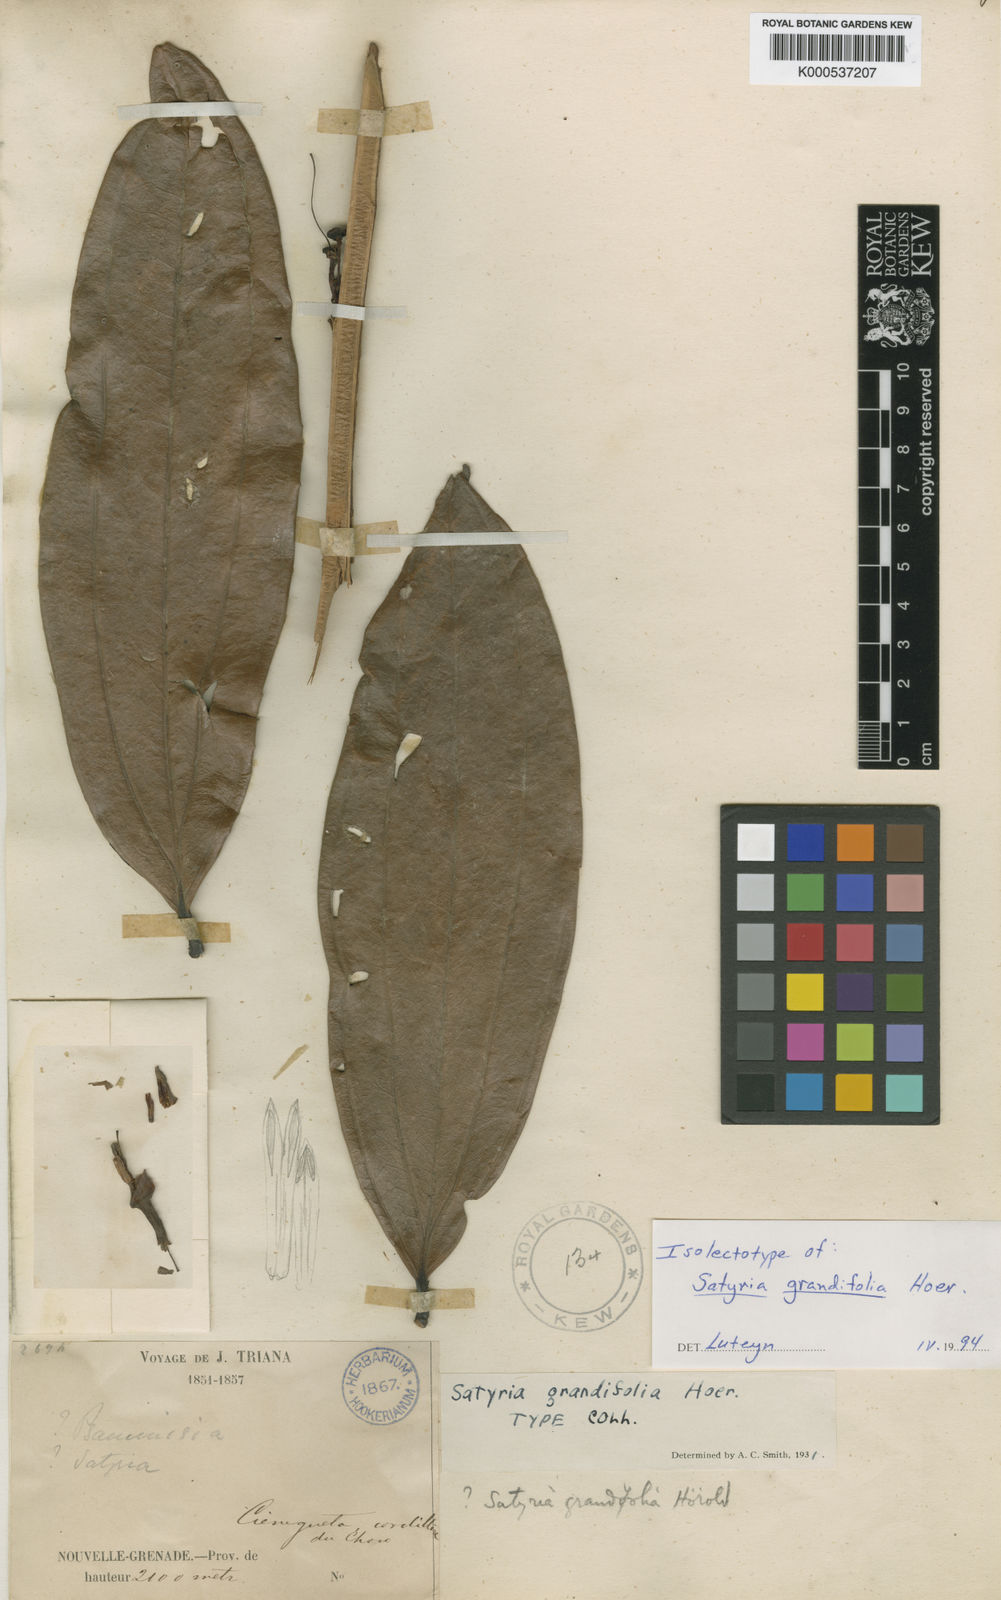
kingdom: Plantae
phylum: Tracheophyta
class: Magnoliopsida
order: Ericales
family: Ericaceae
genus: Satyria
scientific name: Satyria grandifolia
